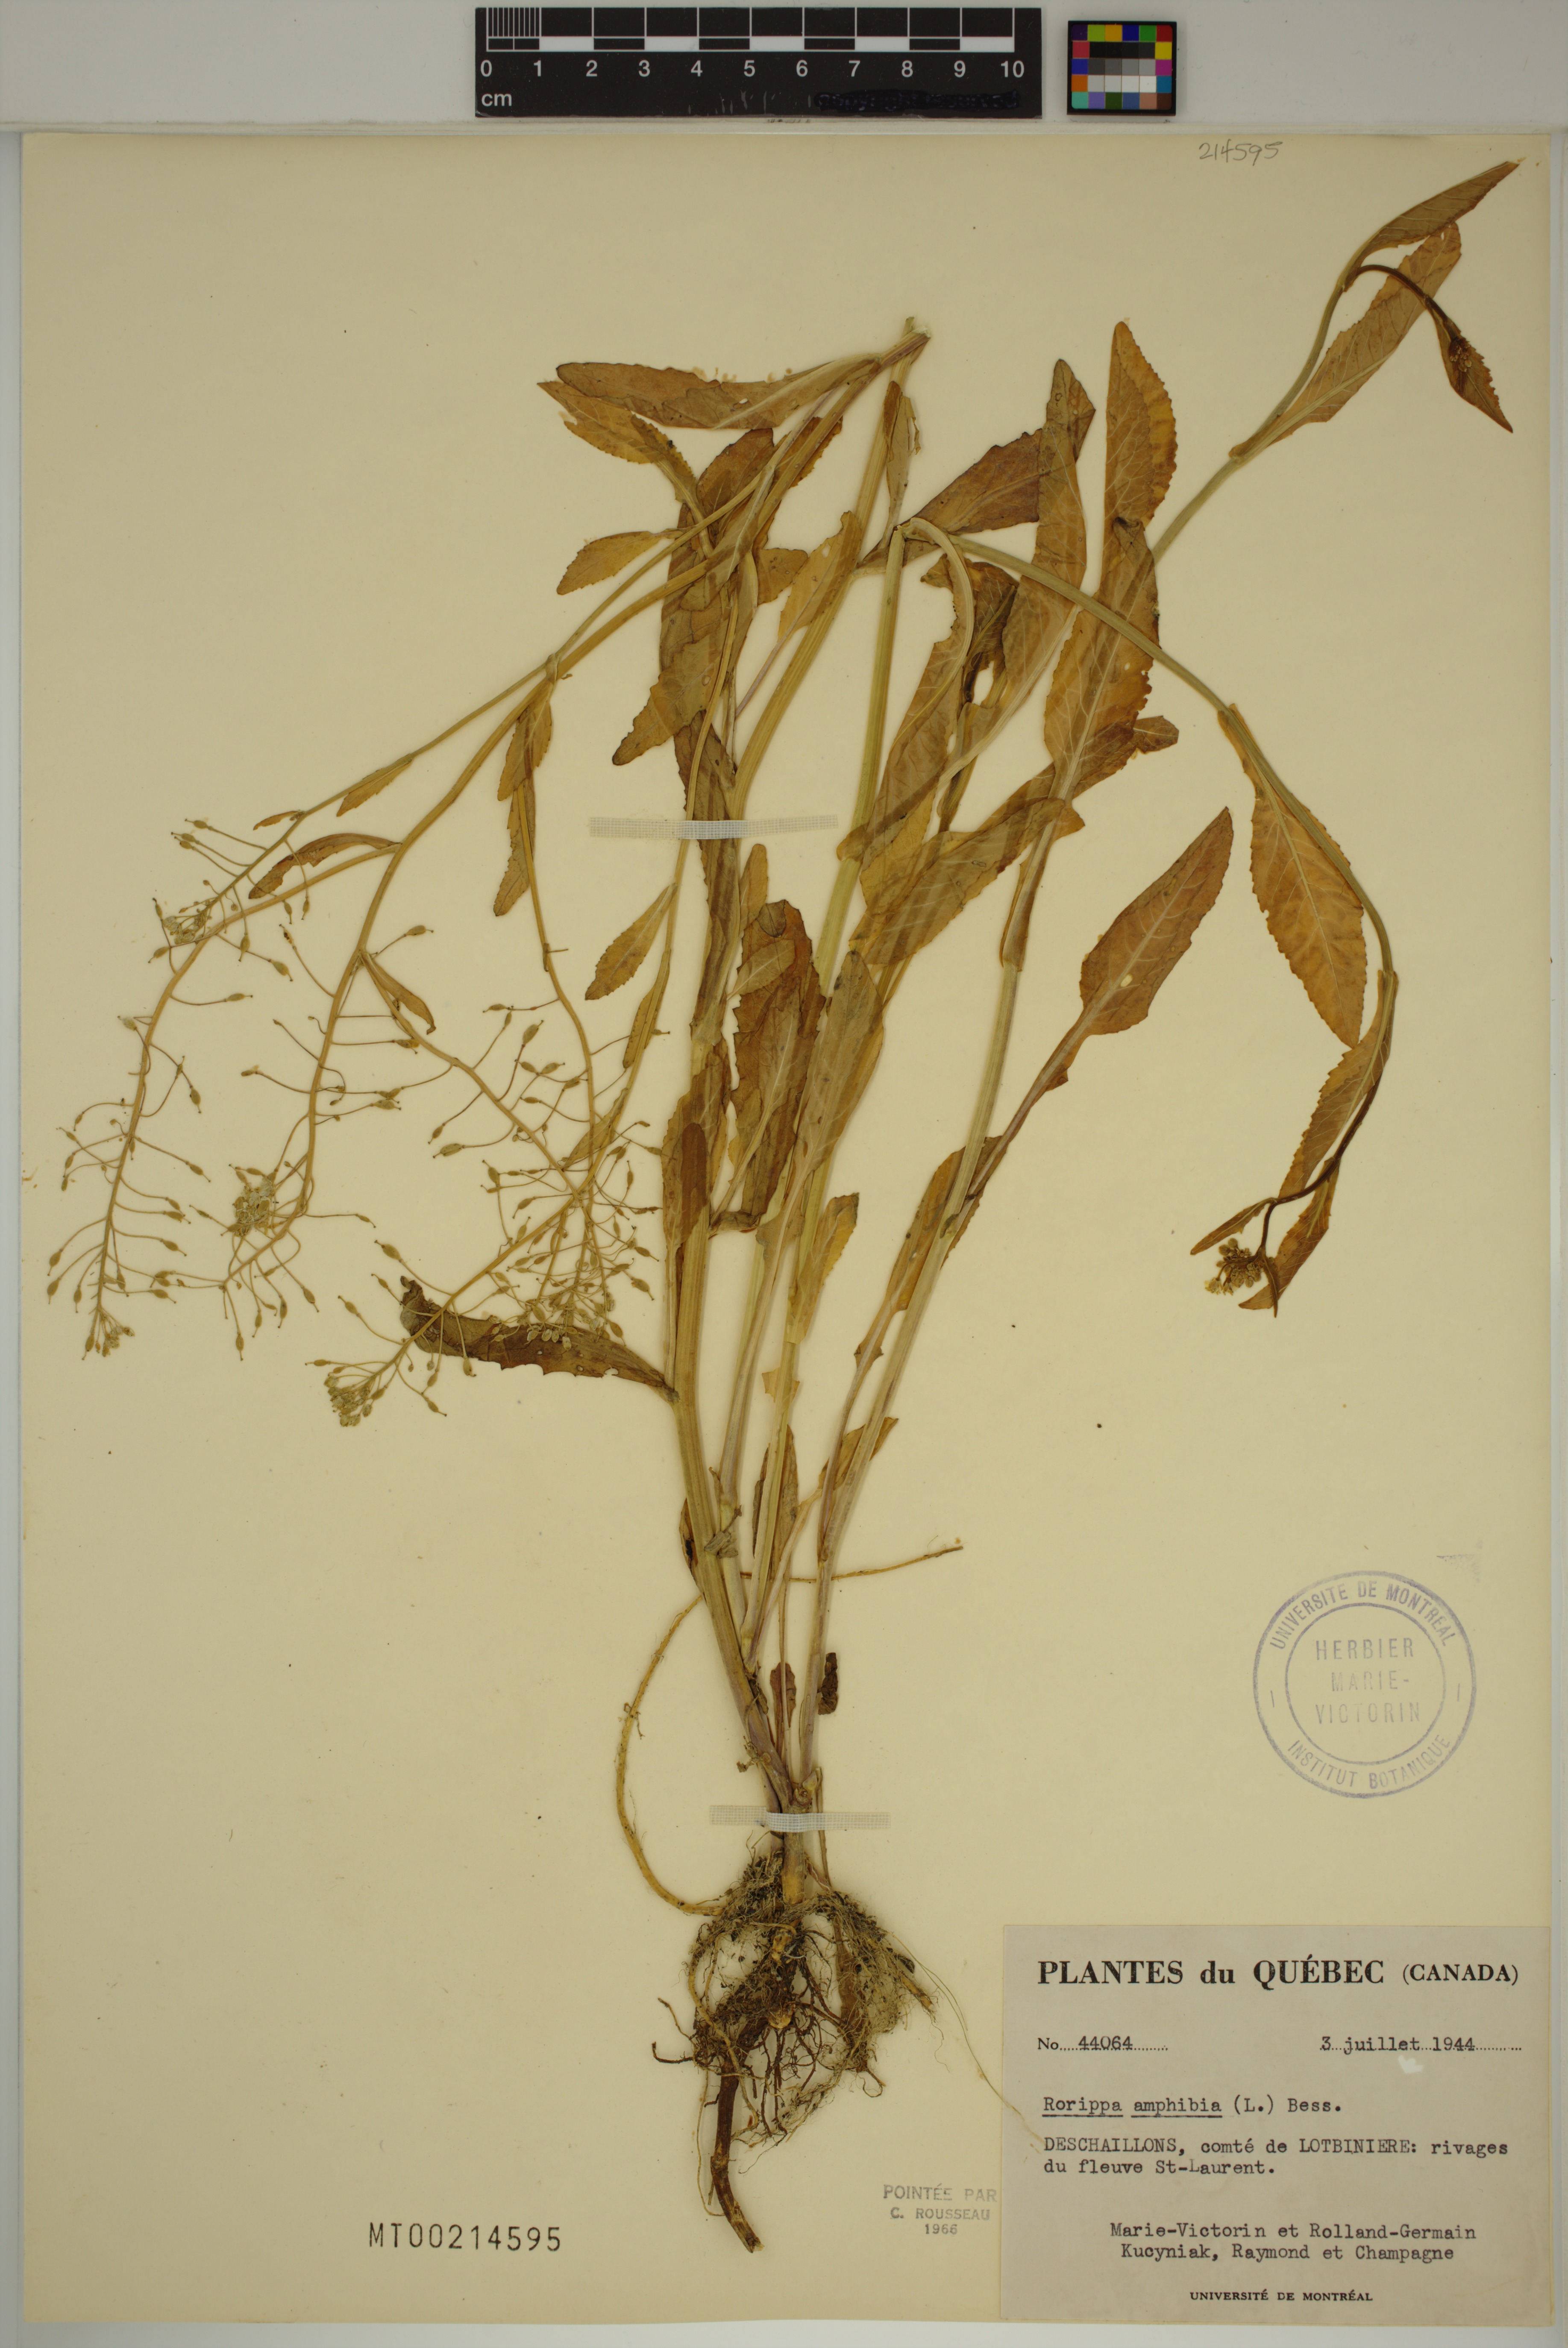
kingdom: Plantae
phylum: Tracheophyta
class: Magnoliopsida
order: Brassicales
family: Brassicaceae
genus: Rorippa
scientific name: Rorippa amphibia
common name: Great yellow-cress
